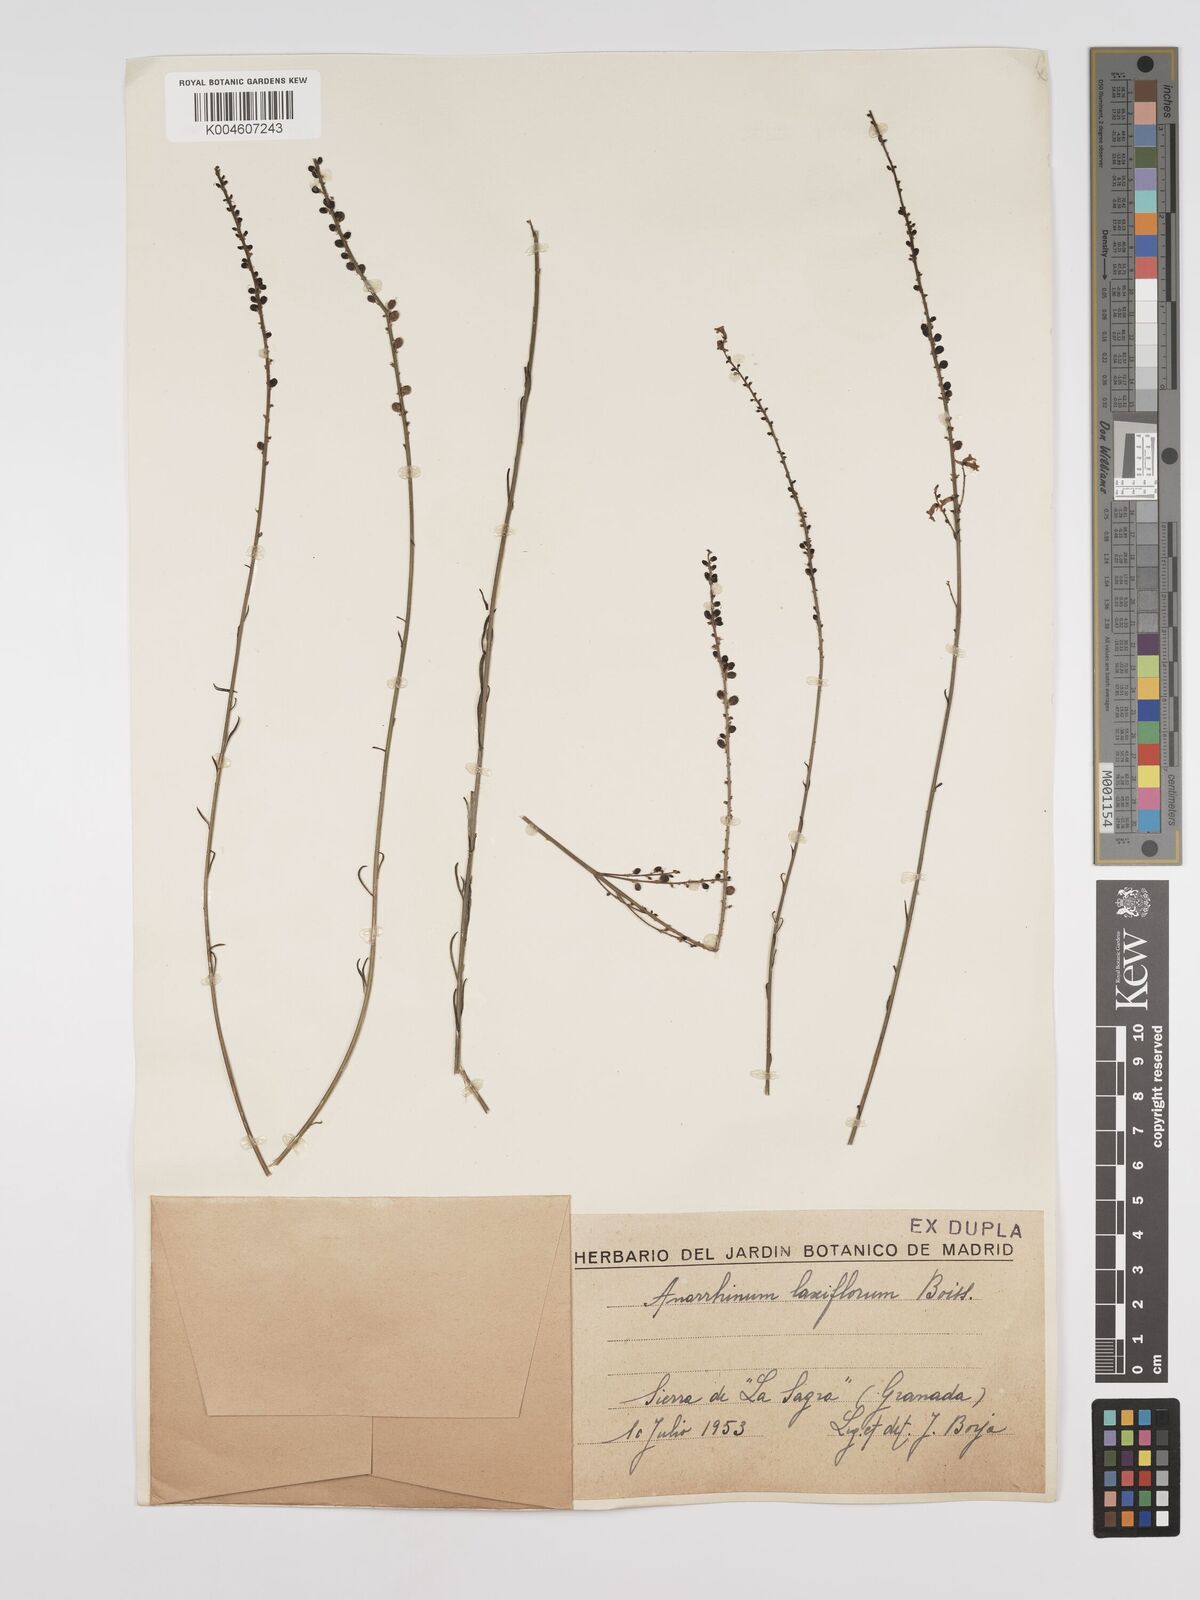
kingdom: Plantae
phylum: Tracheophyta
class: Magnoliopsida
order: Lamiales
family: Plantaginaceae
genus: Anarrhinum
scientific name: Anarrhinum laxiflorum
